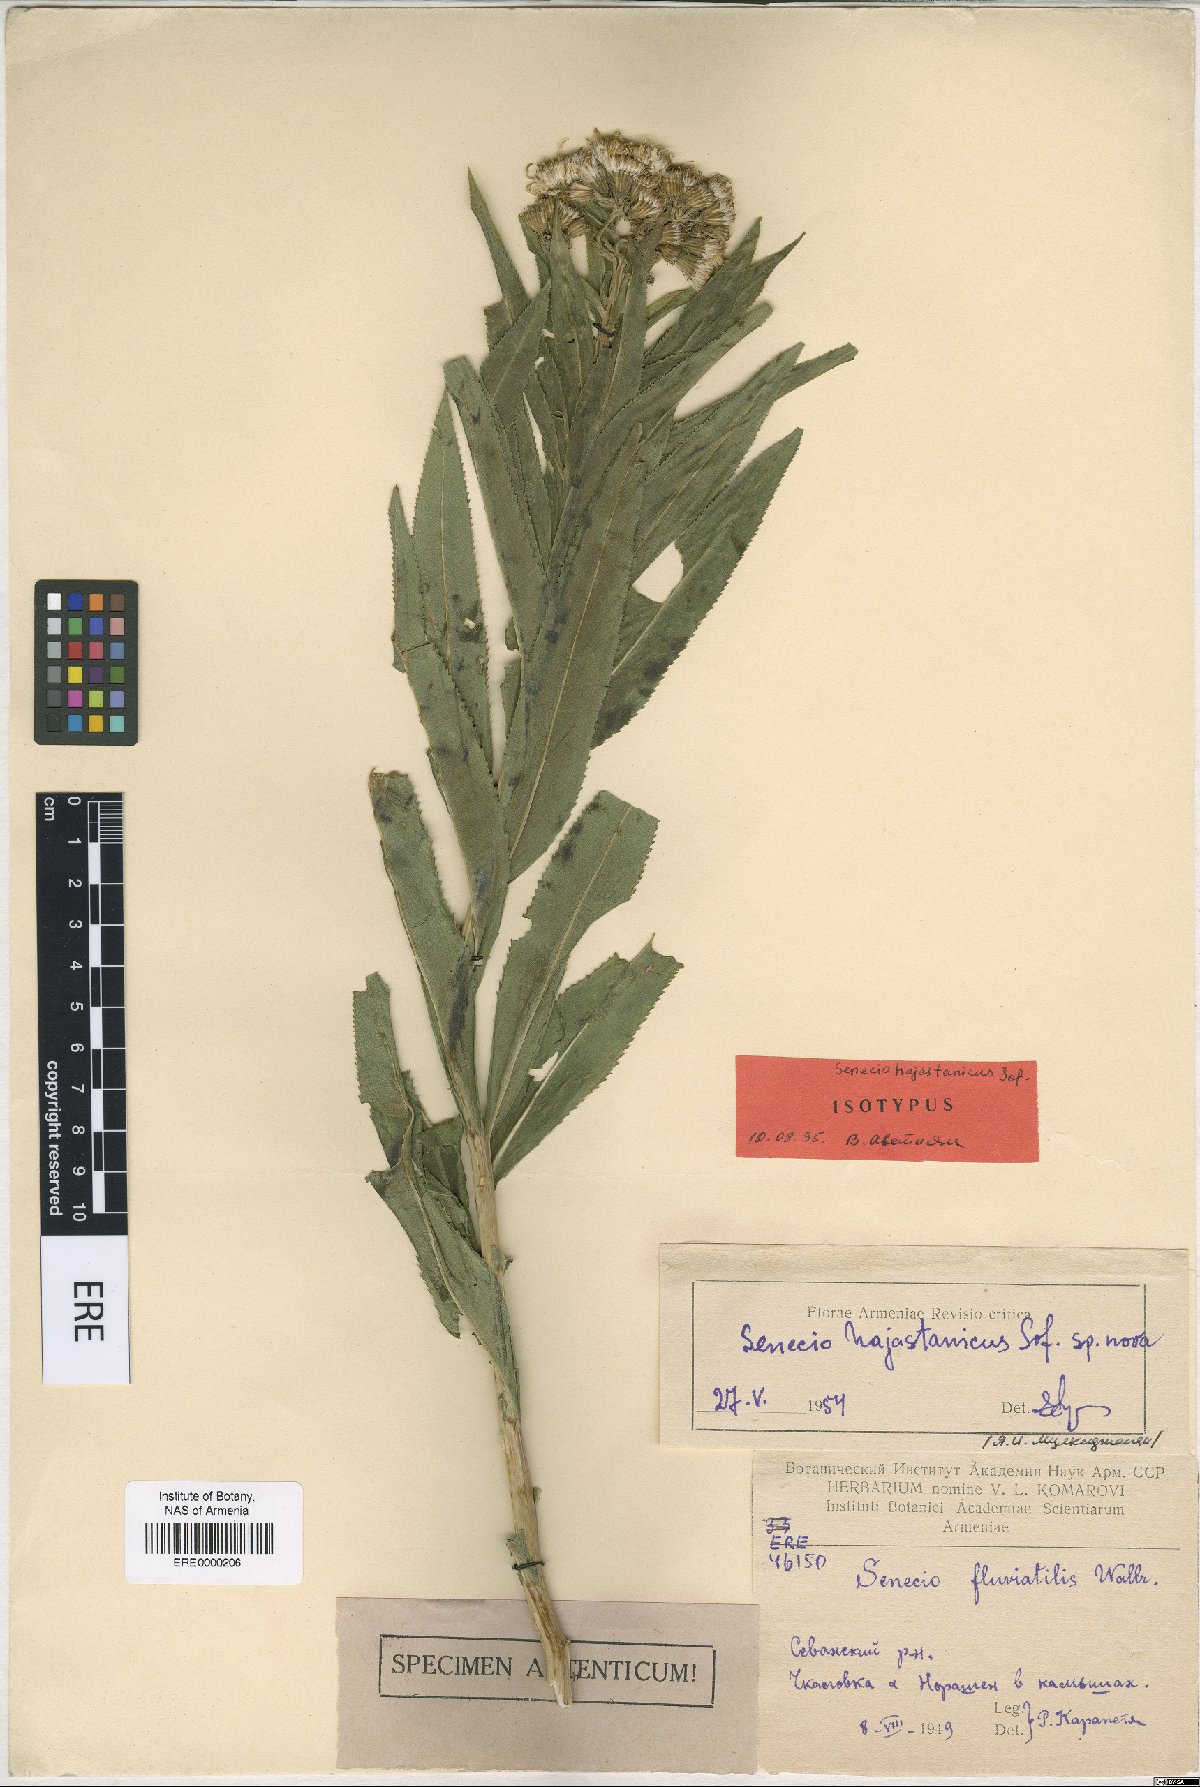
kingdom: Plantae
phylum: Tracheophyta
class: Magnoliopsida
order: Asterales
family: Asteraceae
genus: Senecio
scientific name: Senecio hajastanicus
